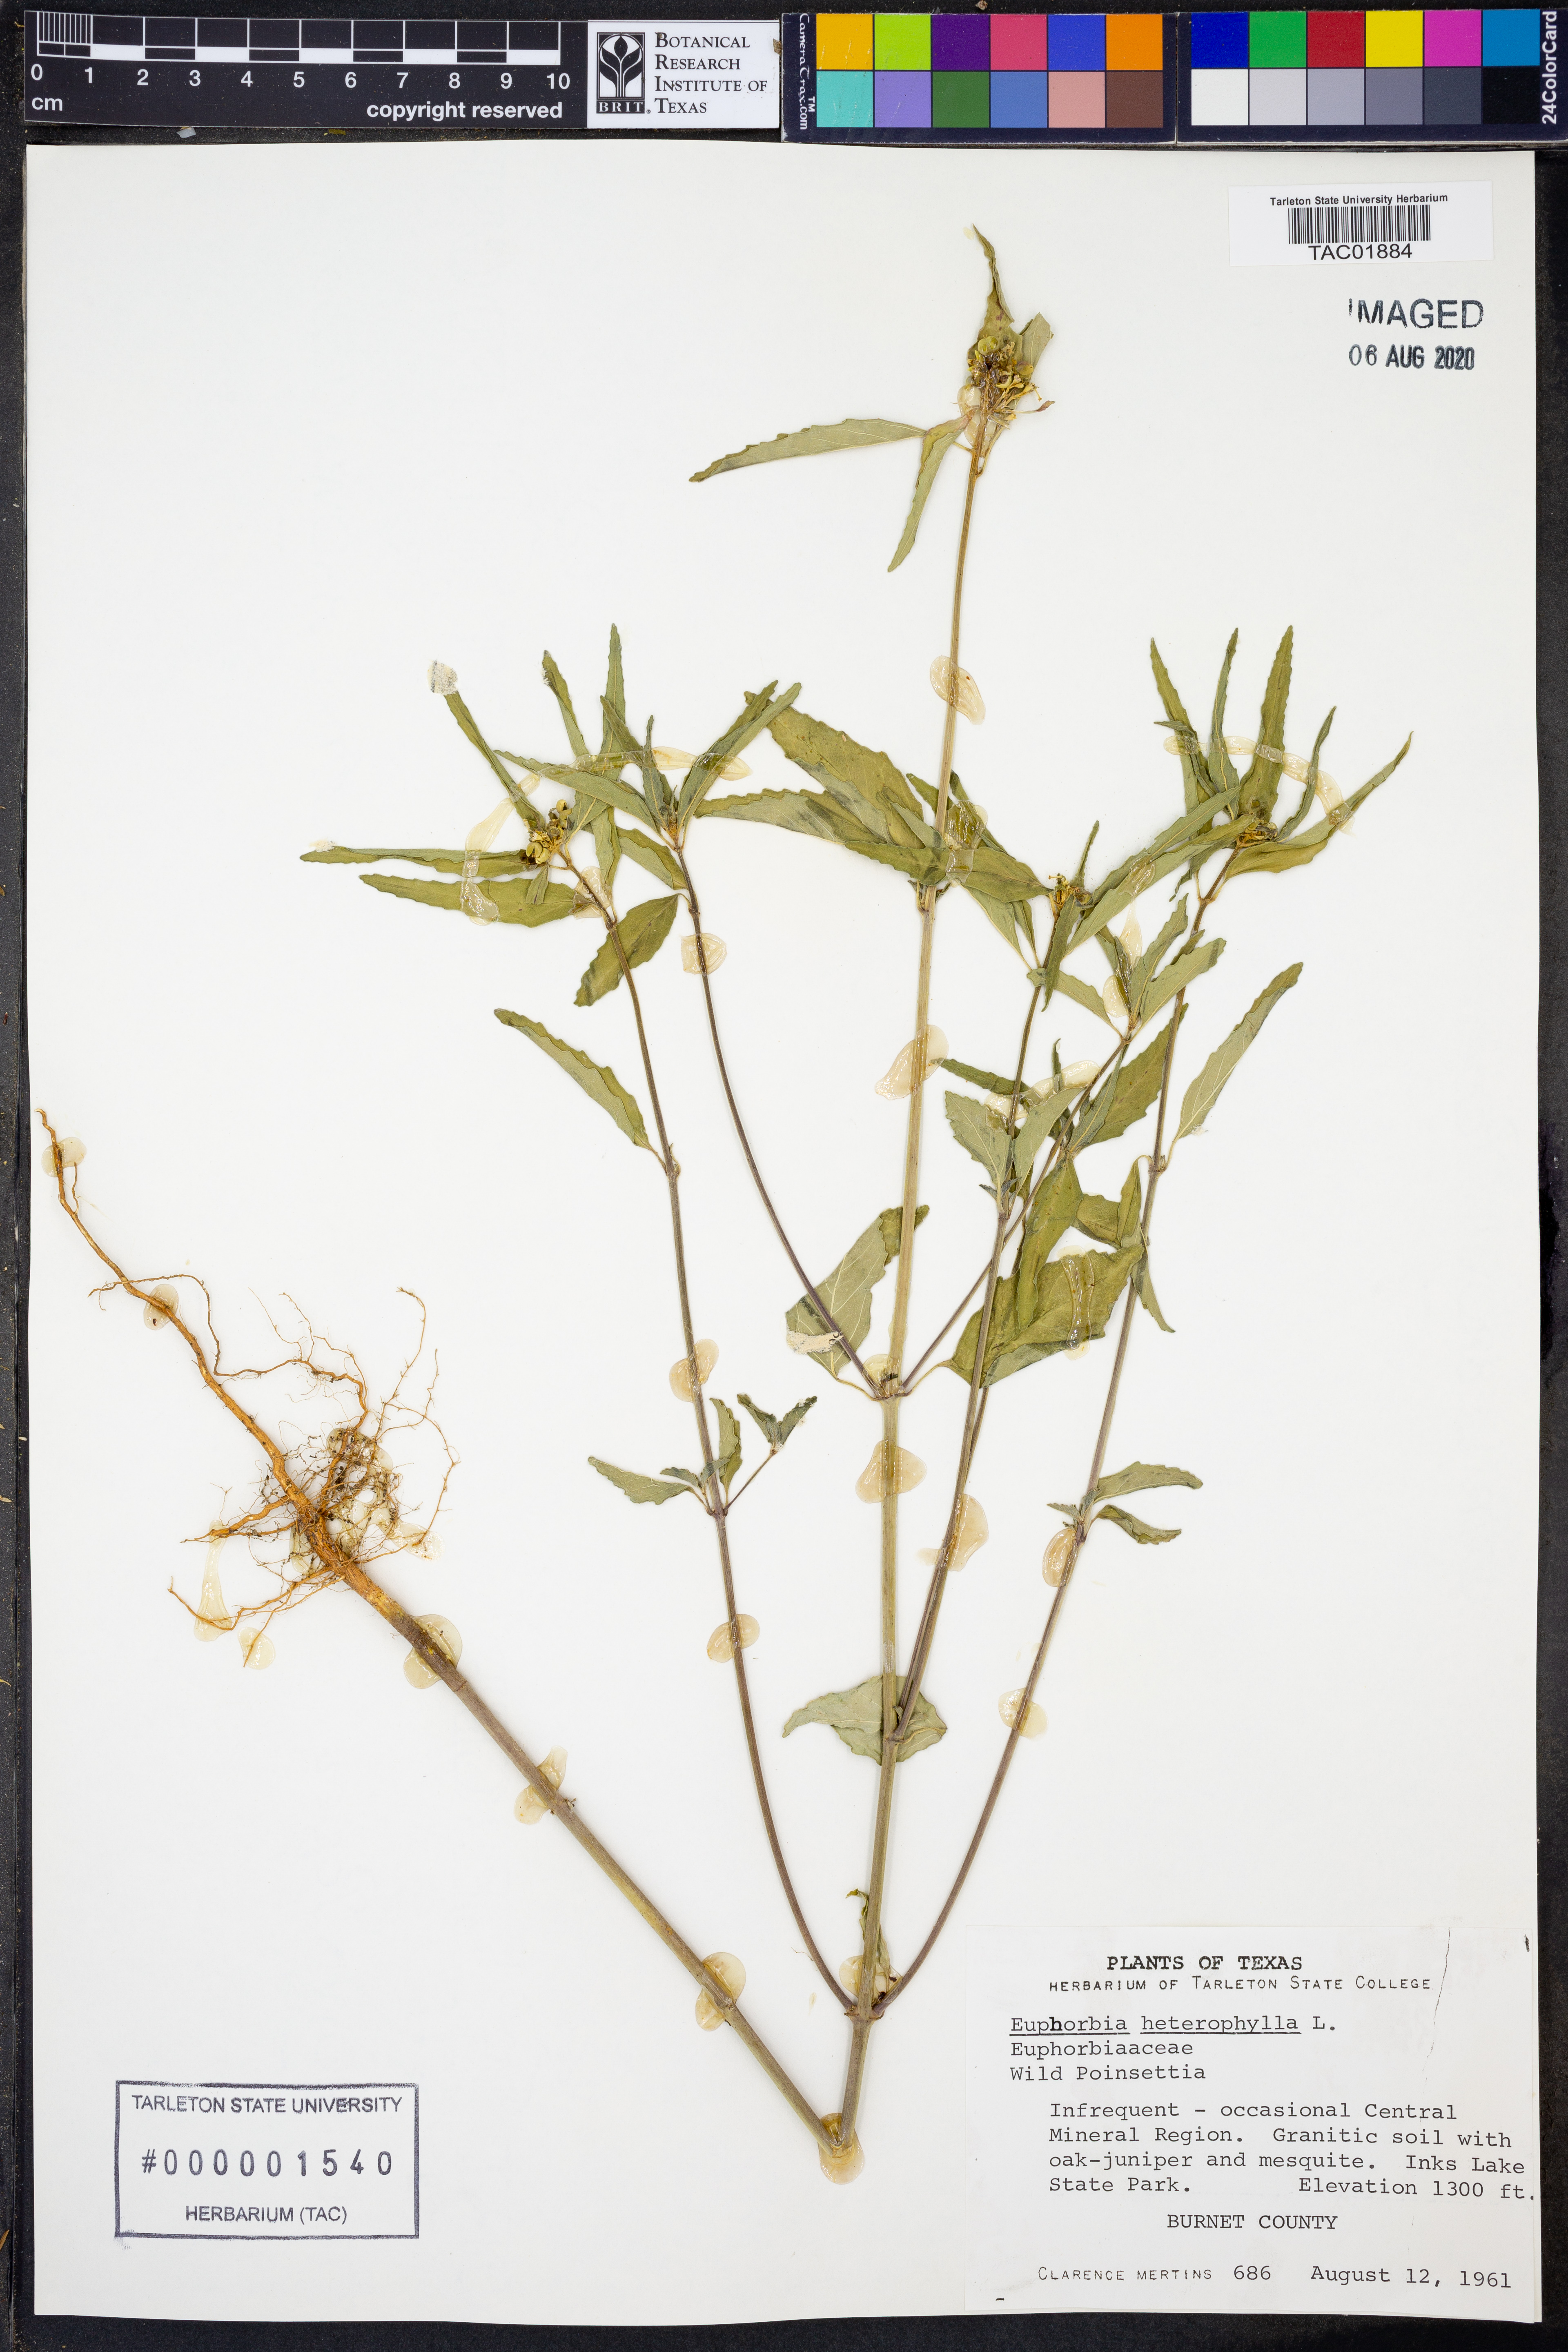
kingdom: Plantae
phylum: Tracheophyta
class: Magnoliopsida
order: Malpighiales
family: Euphorbiaceae
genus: Euphorbia
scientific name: Euphorbia heterophylla
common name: Mexican fireplant
